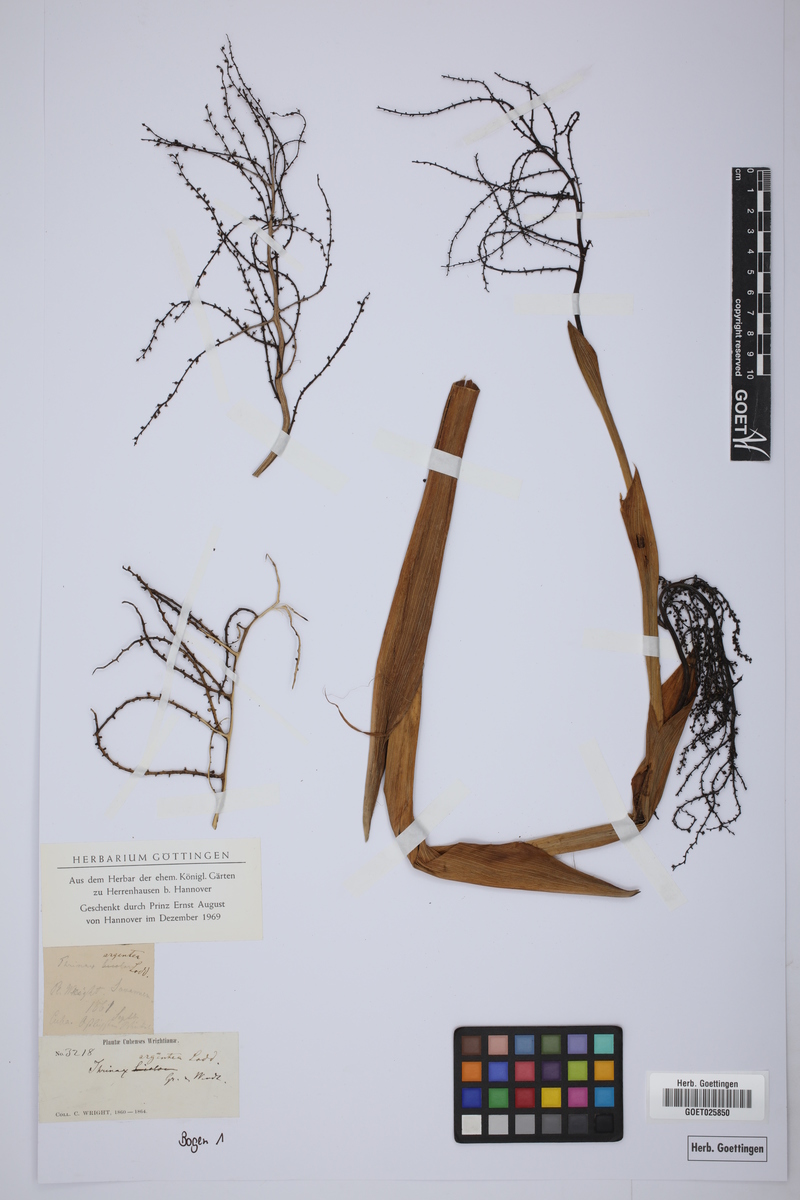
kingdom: Plantae
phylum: Tracheophyta
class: Liliopsida
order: Arecales
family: Arecaceae
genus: Coccothrinax
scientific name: Coccothrinax argentea
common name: Broom palm
